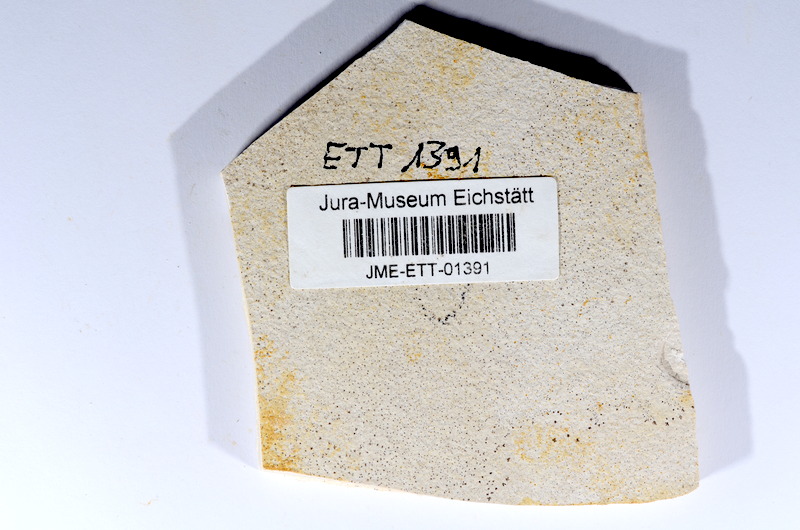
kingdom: Animalia
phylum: Chordata
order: Salmoniformes
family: Orthogonikleithridae
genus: Orthogonikleithrus
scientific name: Orthogonikleithrus hoelli
